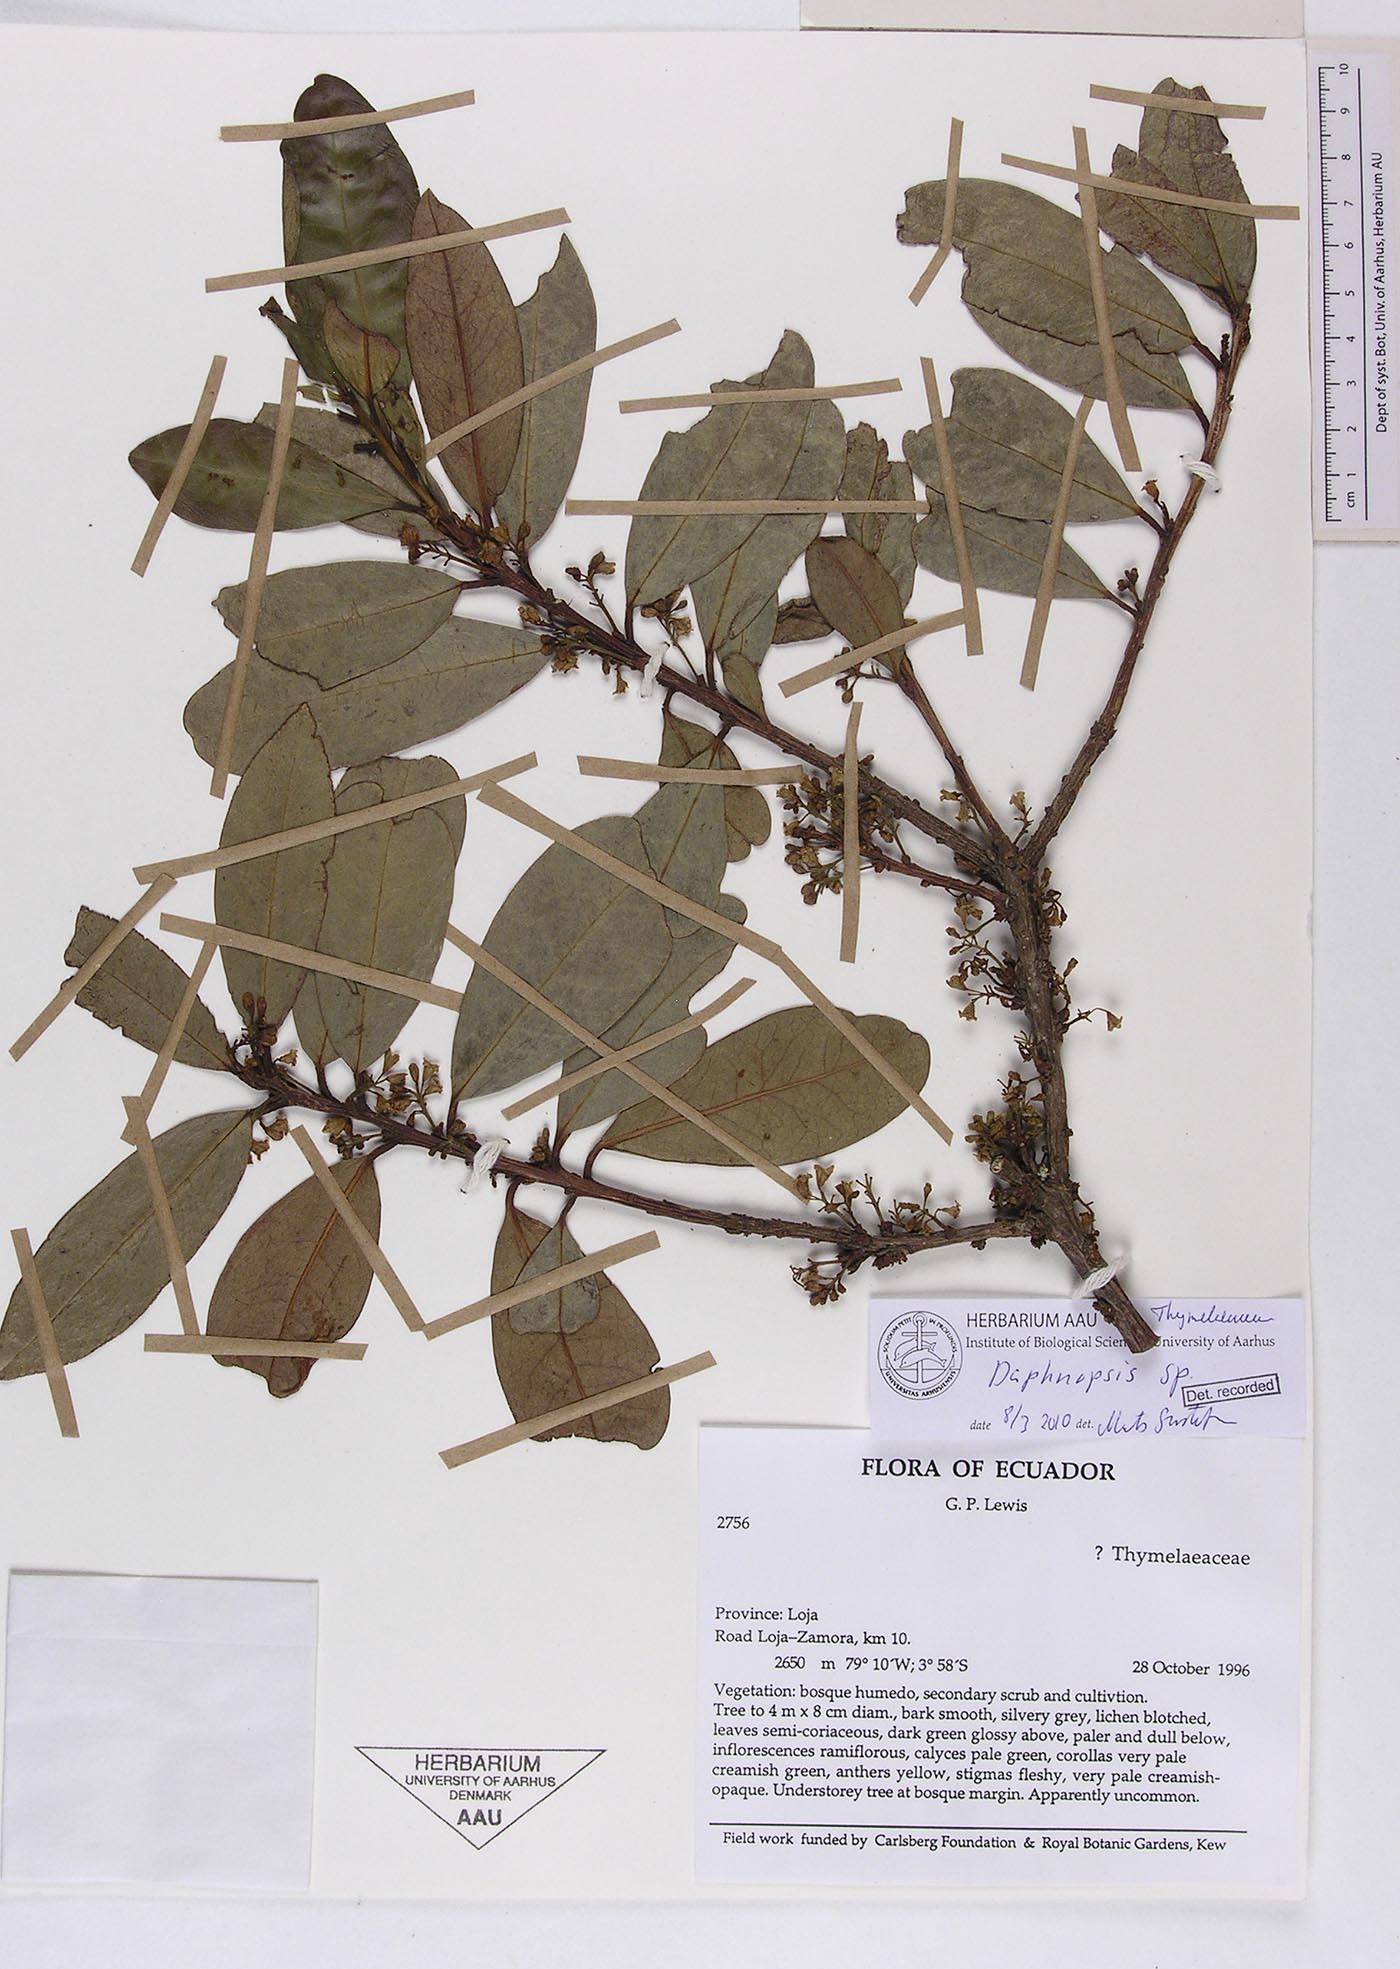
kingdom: Plantae
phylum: Tracheophyta
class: Magnoliopsida
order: Malvales
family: Thymelaeaceae
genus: Daphnopsis
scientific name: Daphnopsis
